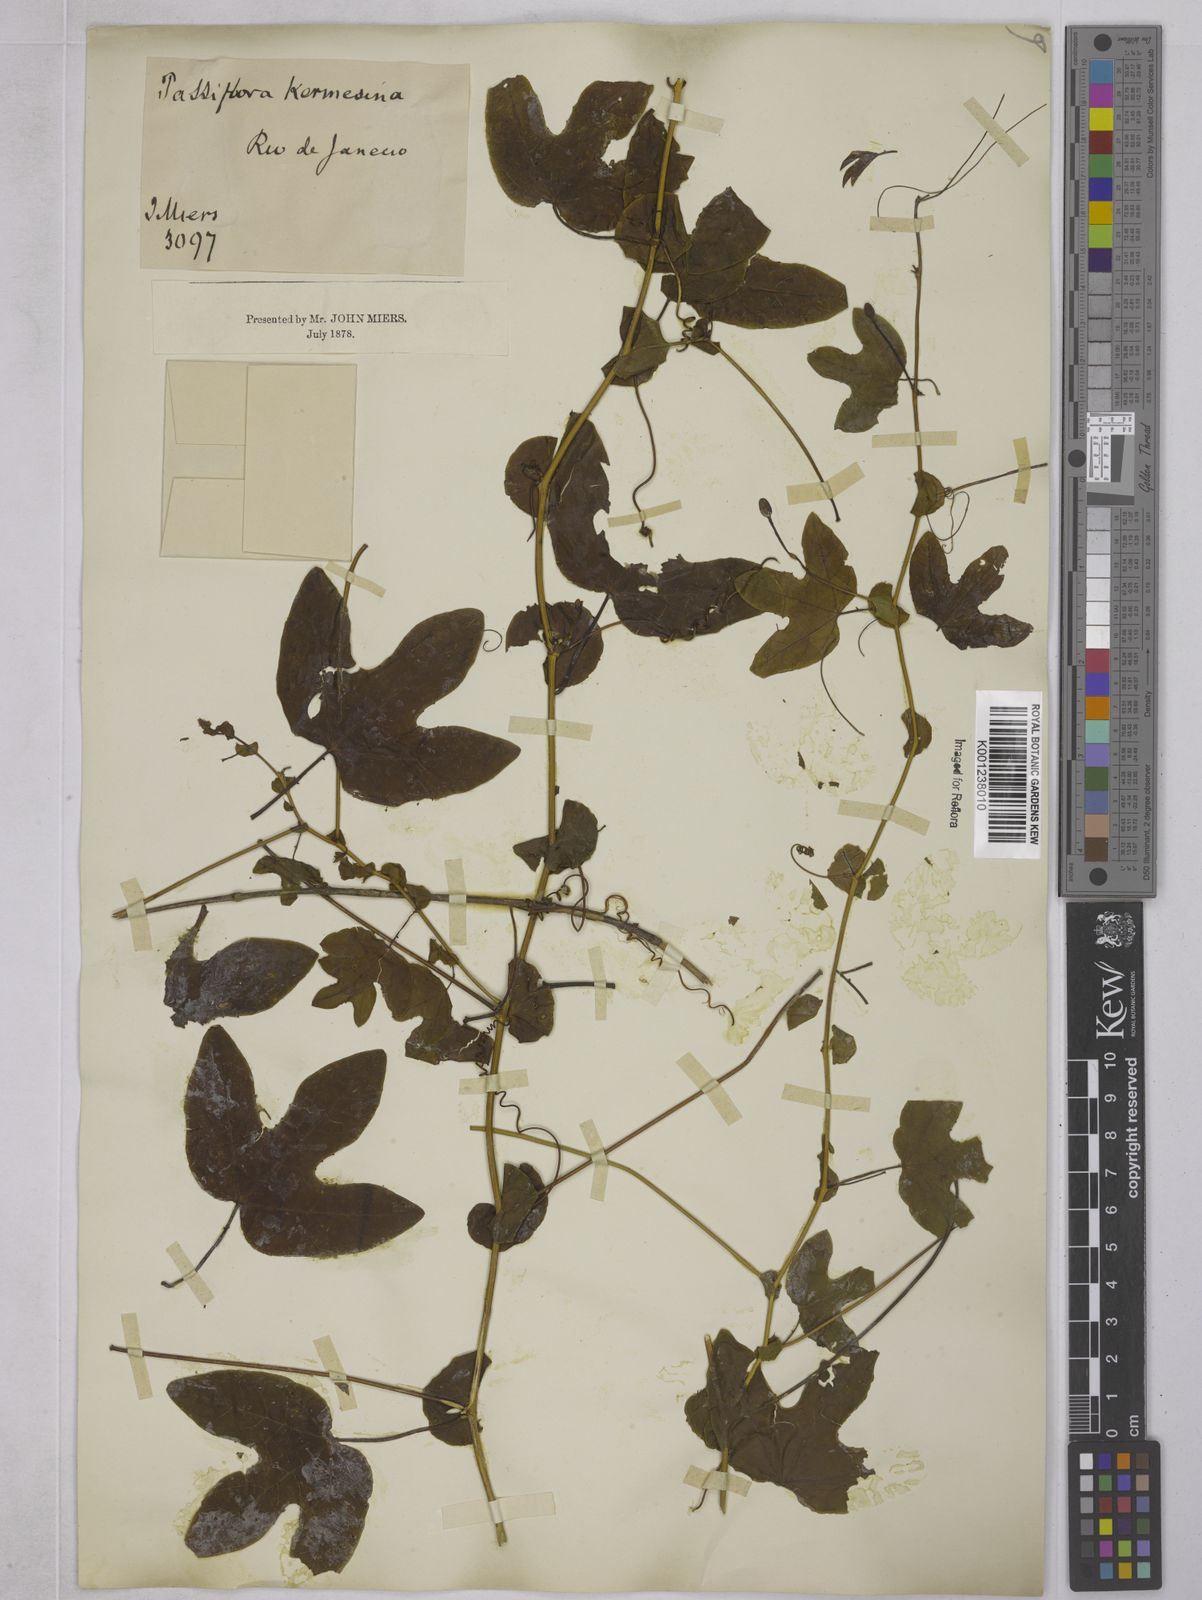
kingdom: Plantae
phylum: Tracheophyta
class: Magnoliopsida
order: Malpighiales
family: Passifloraceae
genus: Passiflora
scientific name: Passiflora kermesina
